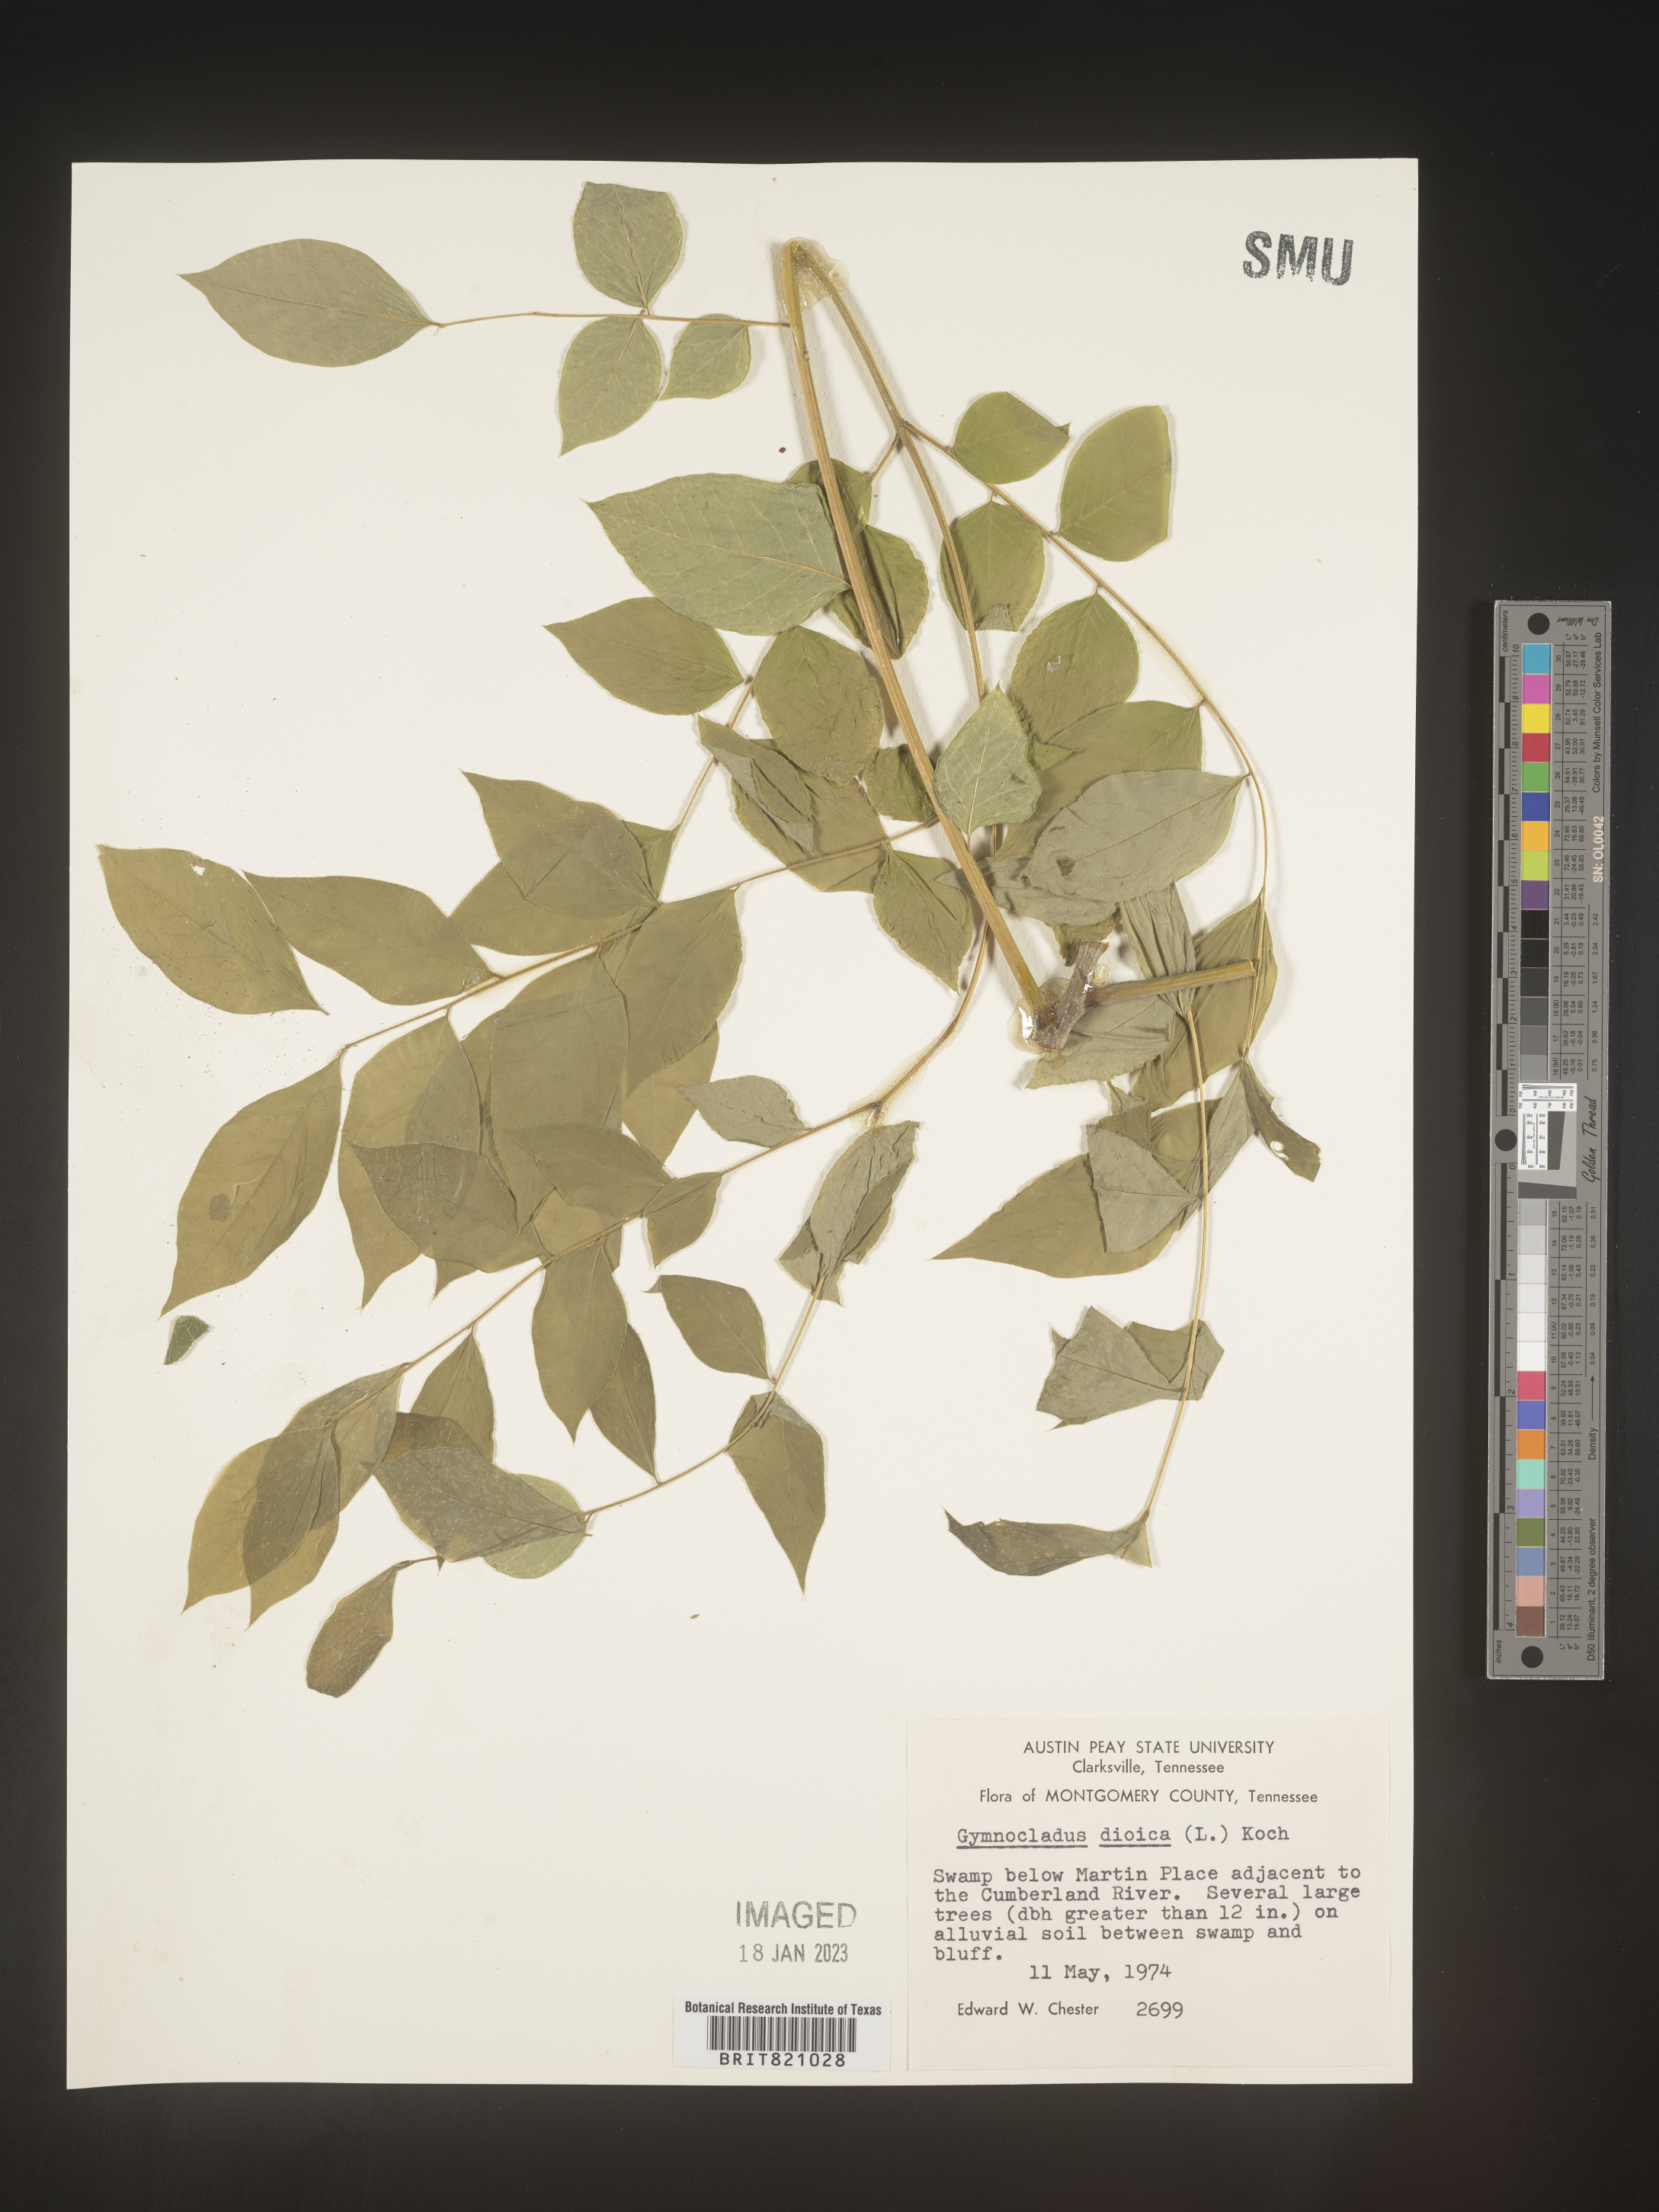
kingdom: Plantae
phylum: Tracheophyta
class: Magnoliopsida
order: Fabales
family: Fabaceae
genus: Gymnocladus
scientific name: Gymnocladus dioicus
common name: Kentucky coffee-tree
